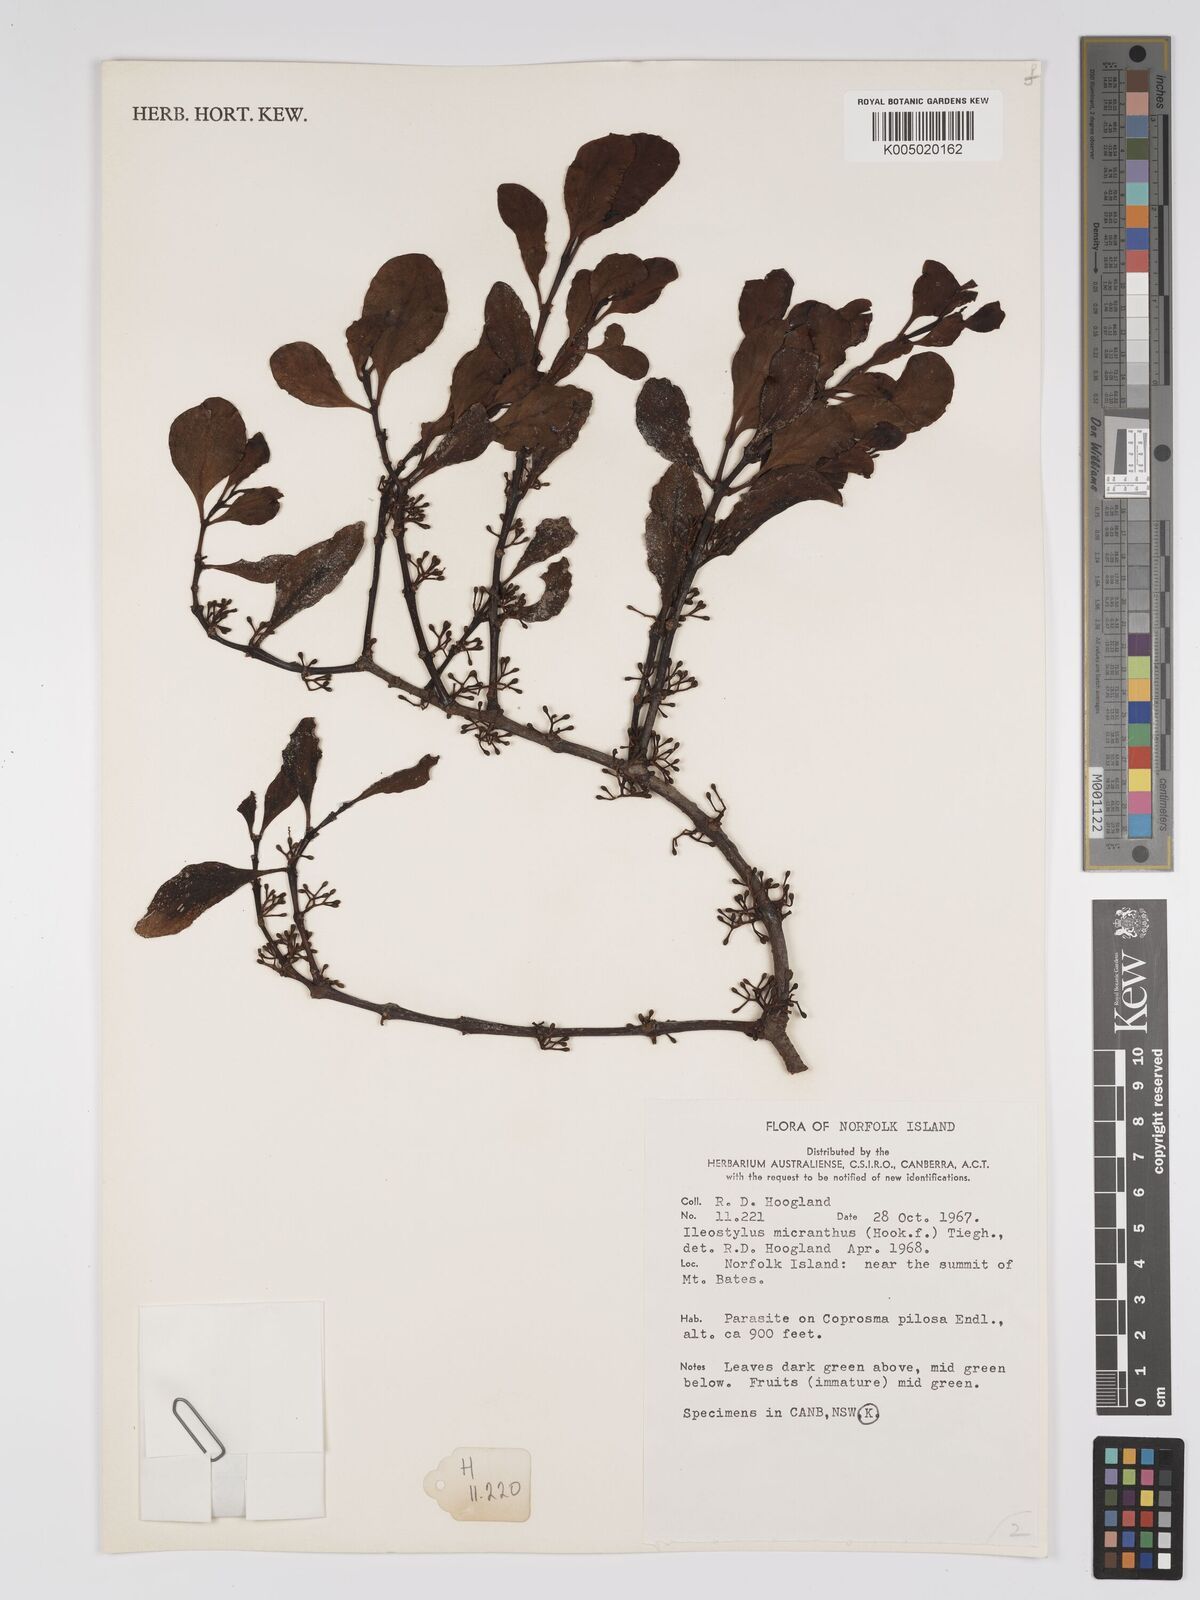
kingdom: Plantae
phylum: Tracheophyta
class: Magnoliopsida
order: Santalales
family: Loranthaceae
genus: Ileostylus
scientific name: Ileostylus micranthus
